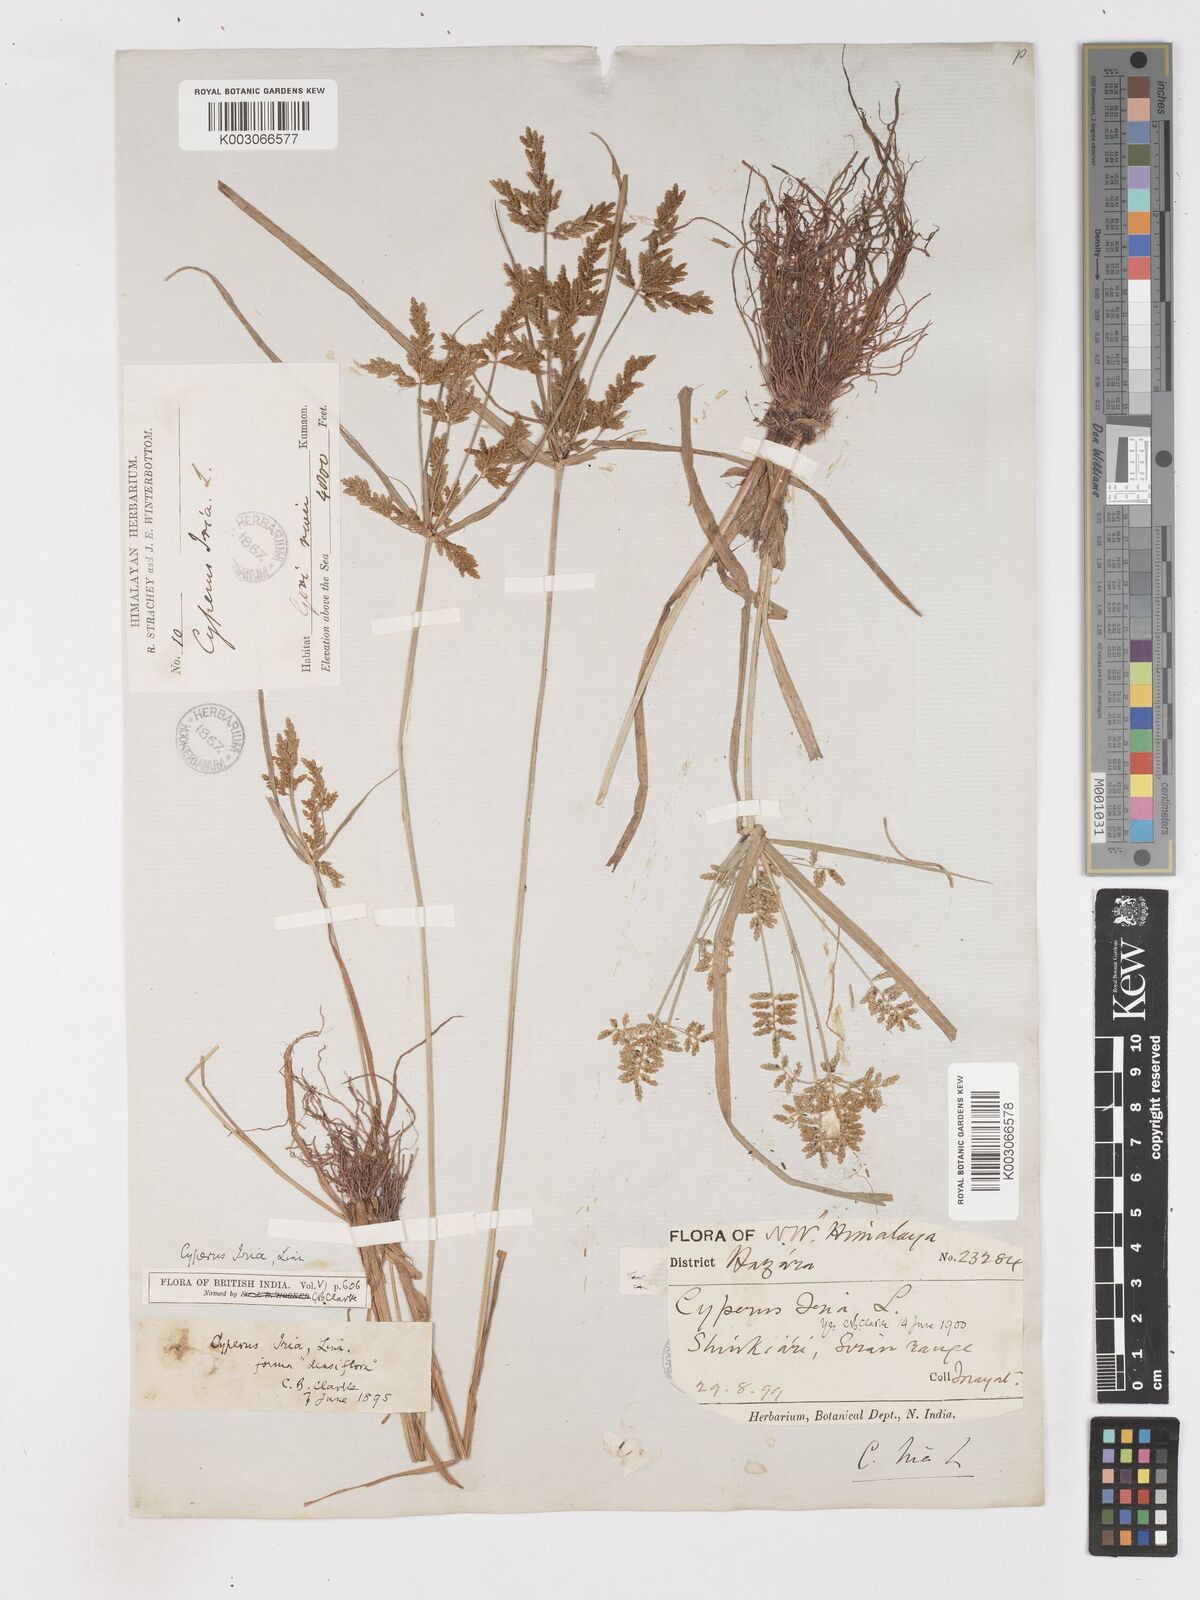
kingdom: Plantae
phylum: Tracheophyta
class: Liliopsida
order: Poales
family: Cyperaceae
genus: Cyperus
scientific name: Cyperus alulatus
